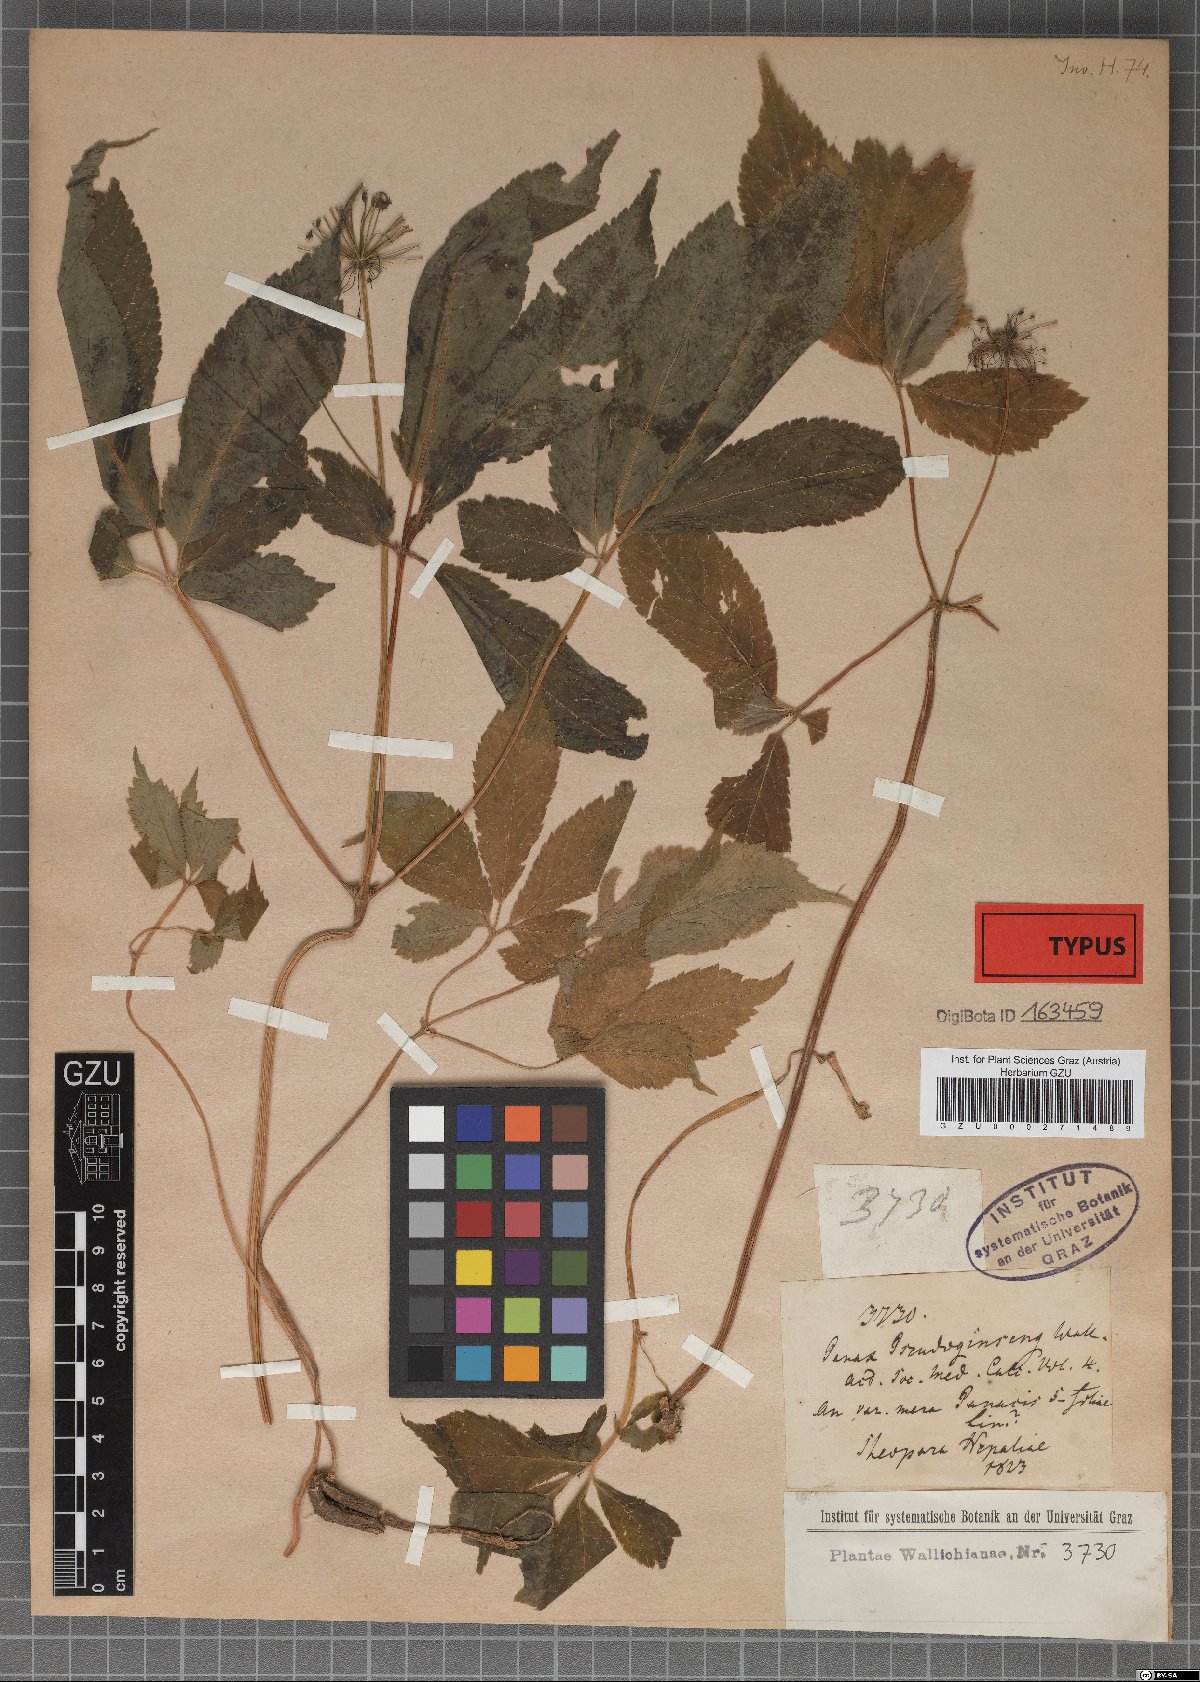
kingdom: Plantae
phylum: Tracheophyta
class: Magnoliopsida
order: Apiales
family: Araliaceae
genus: Panax
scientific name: Panax pseudoginseng
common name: Pseudoginseng
